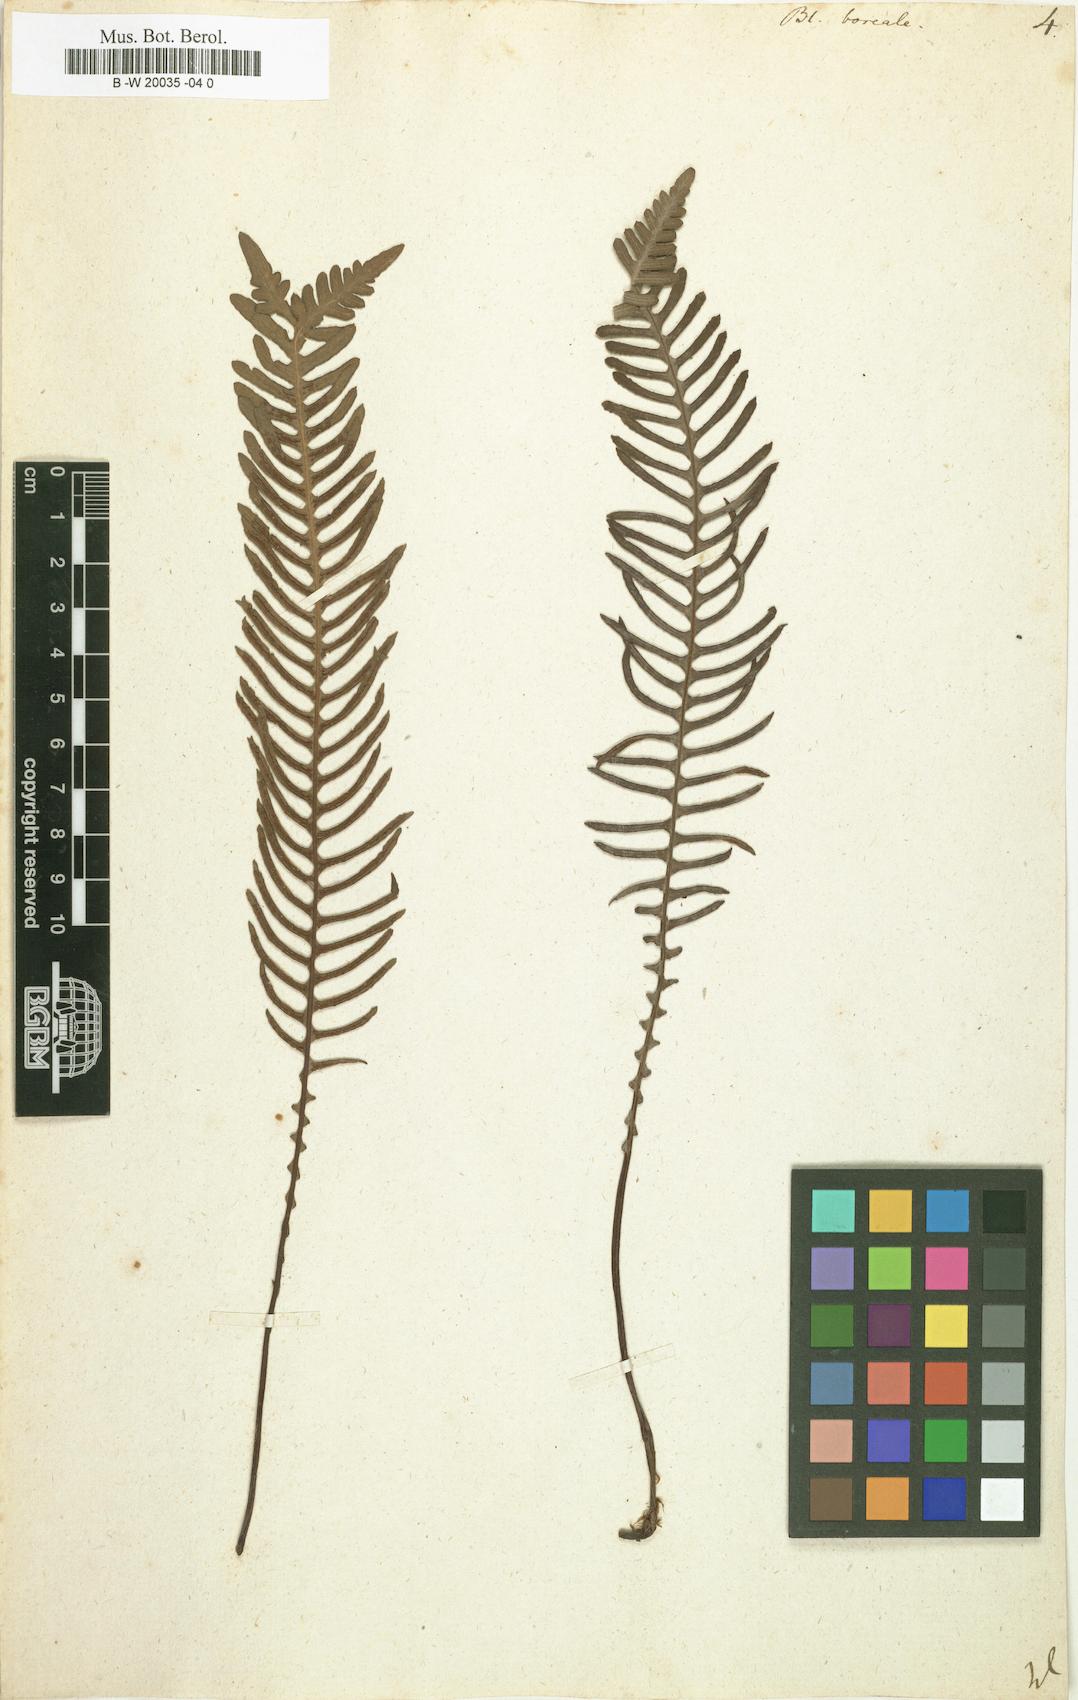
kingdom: Plantae
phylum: Tracheophyta
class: Polypodiopsida
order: Polypodiales
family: Blechnaceae
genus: Struthiopteris
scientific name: Struthiopteris spicant
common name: Deer fern
